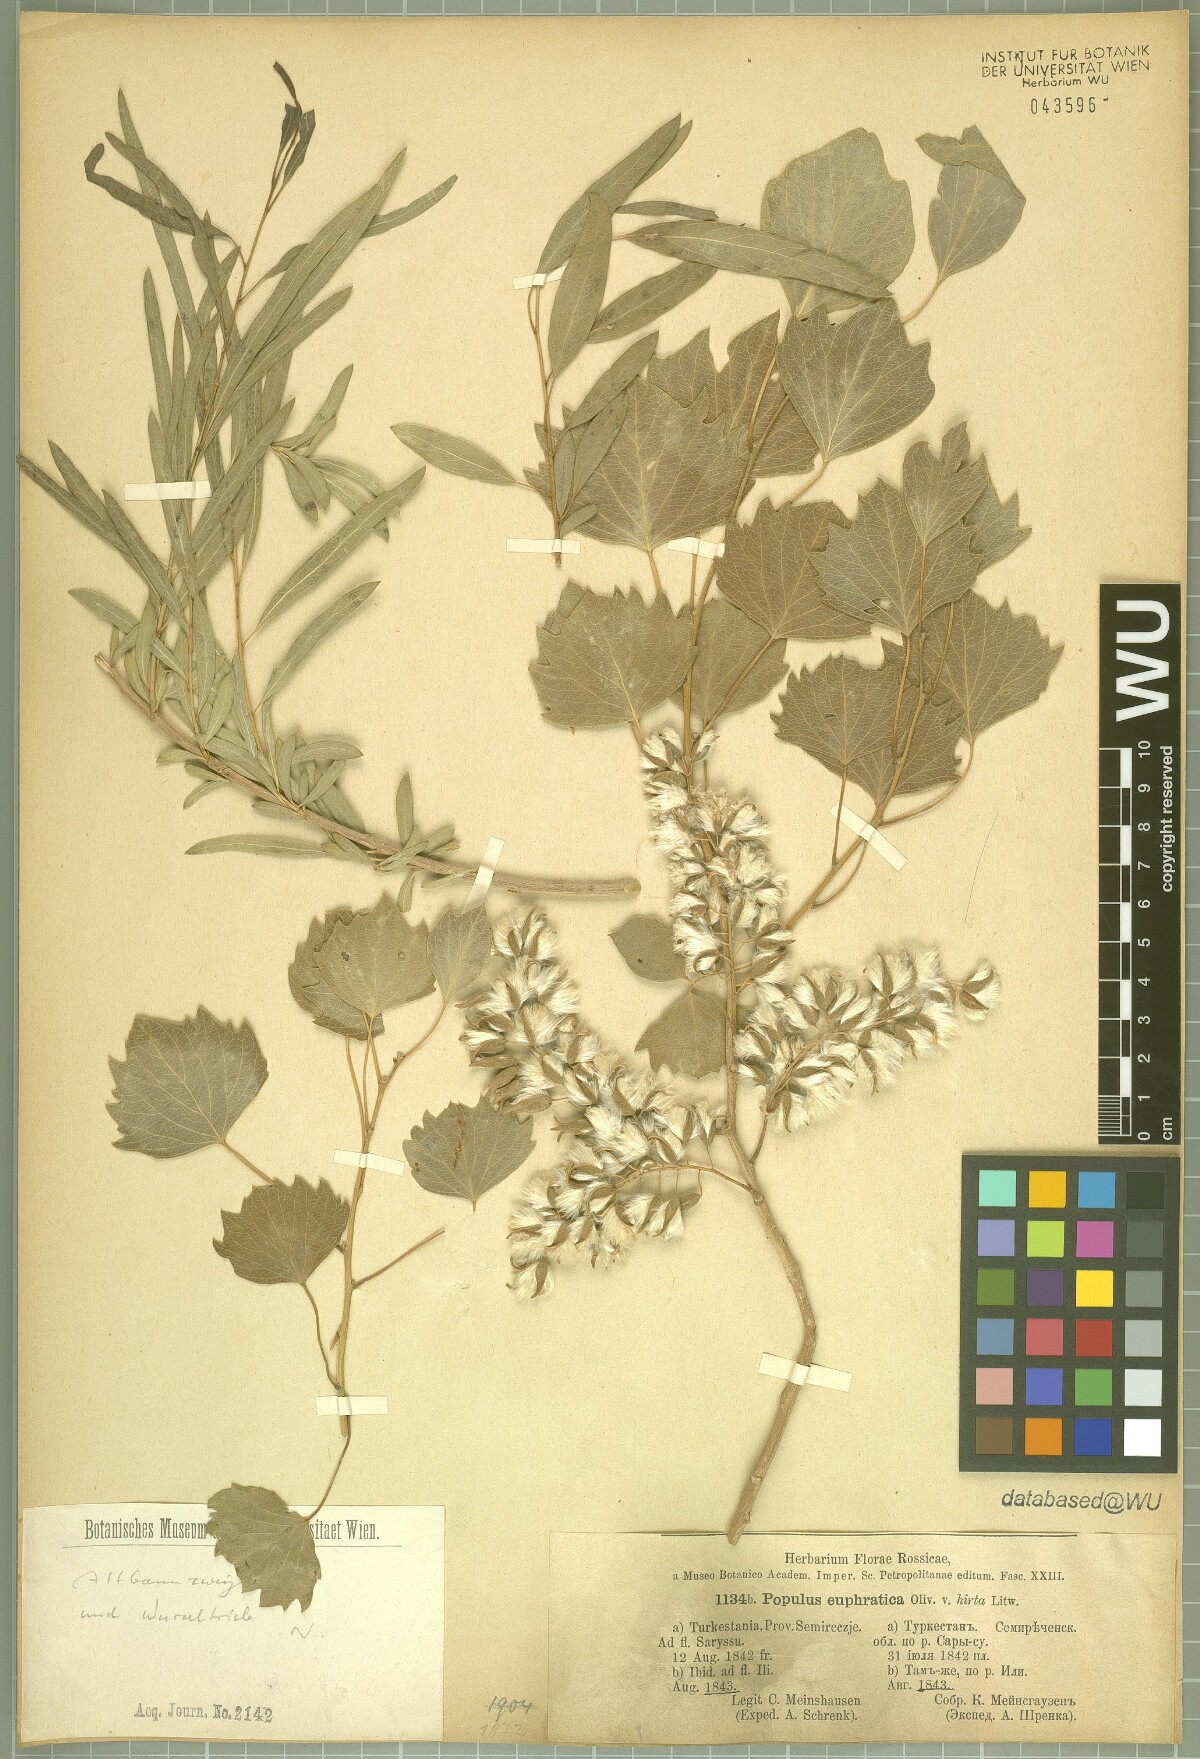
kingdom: Plantae
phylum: Tracheophyta
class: Magnoliopsida
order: Malpighiales
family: Salicaceae
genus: Populus
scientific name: Populus euphratica
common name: Euphrates poplar
